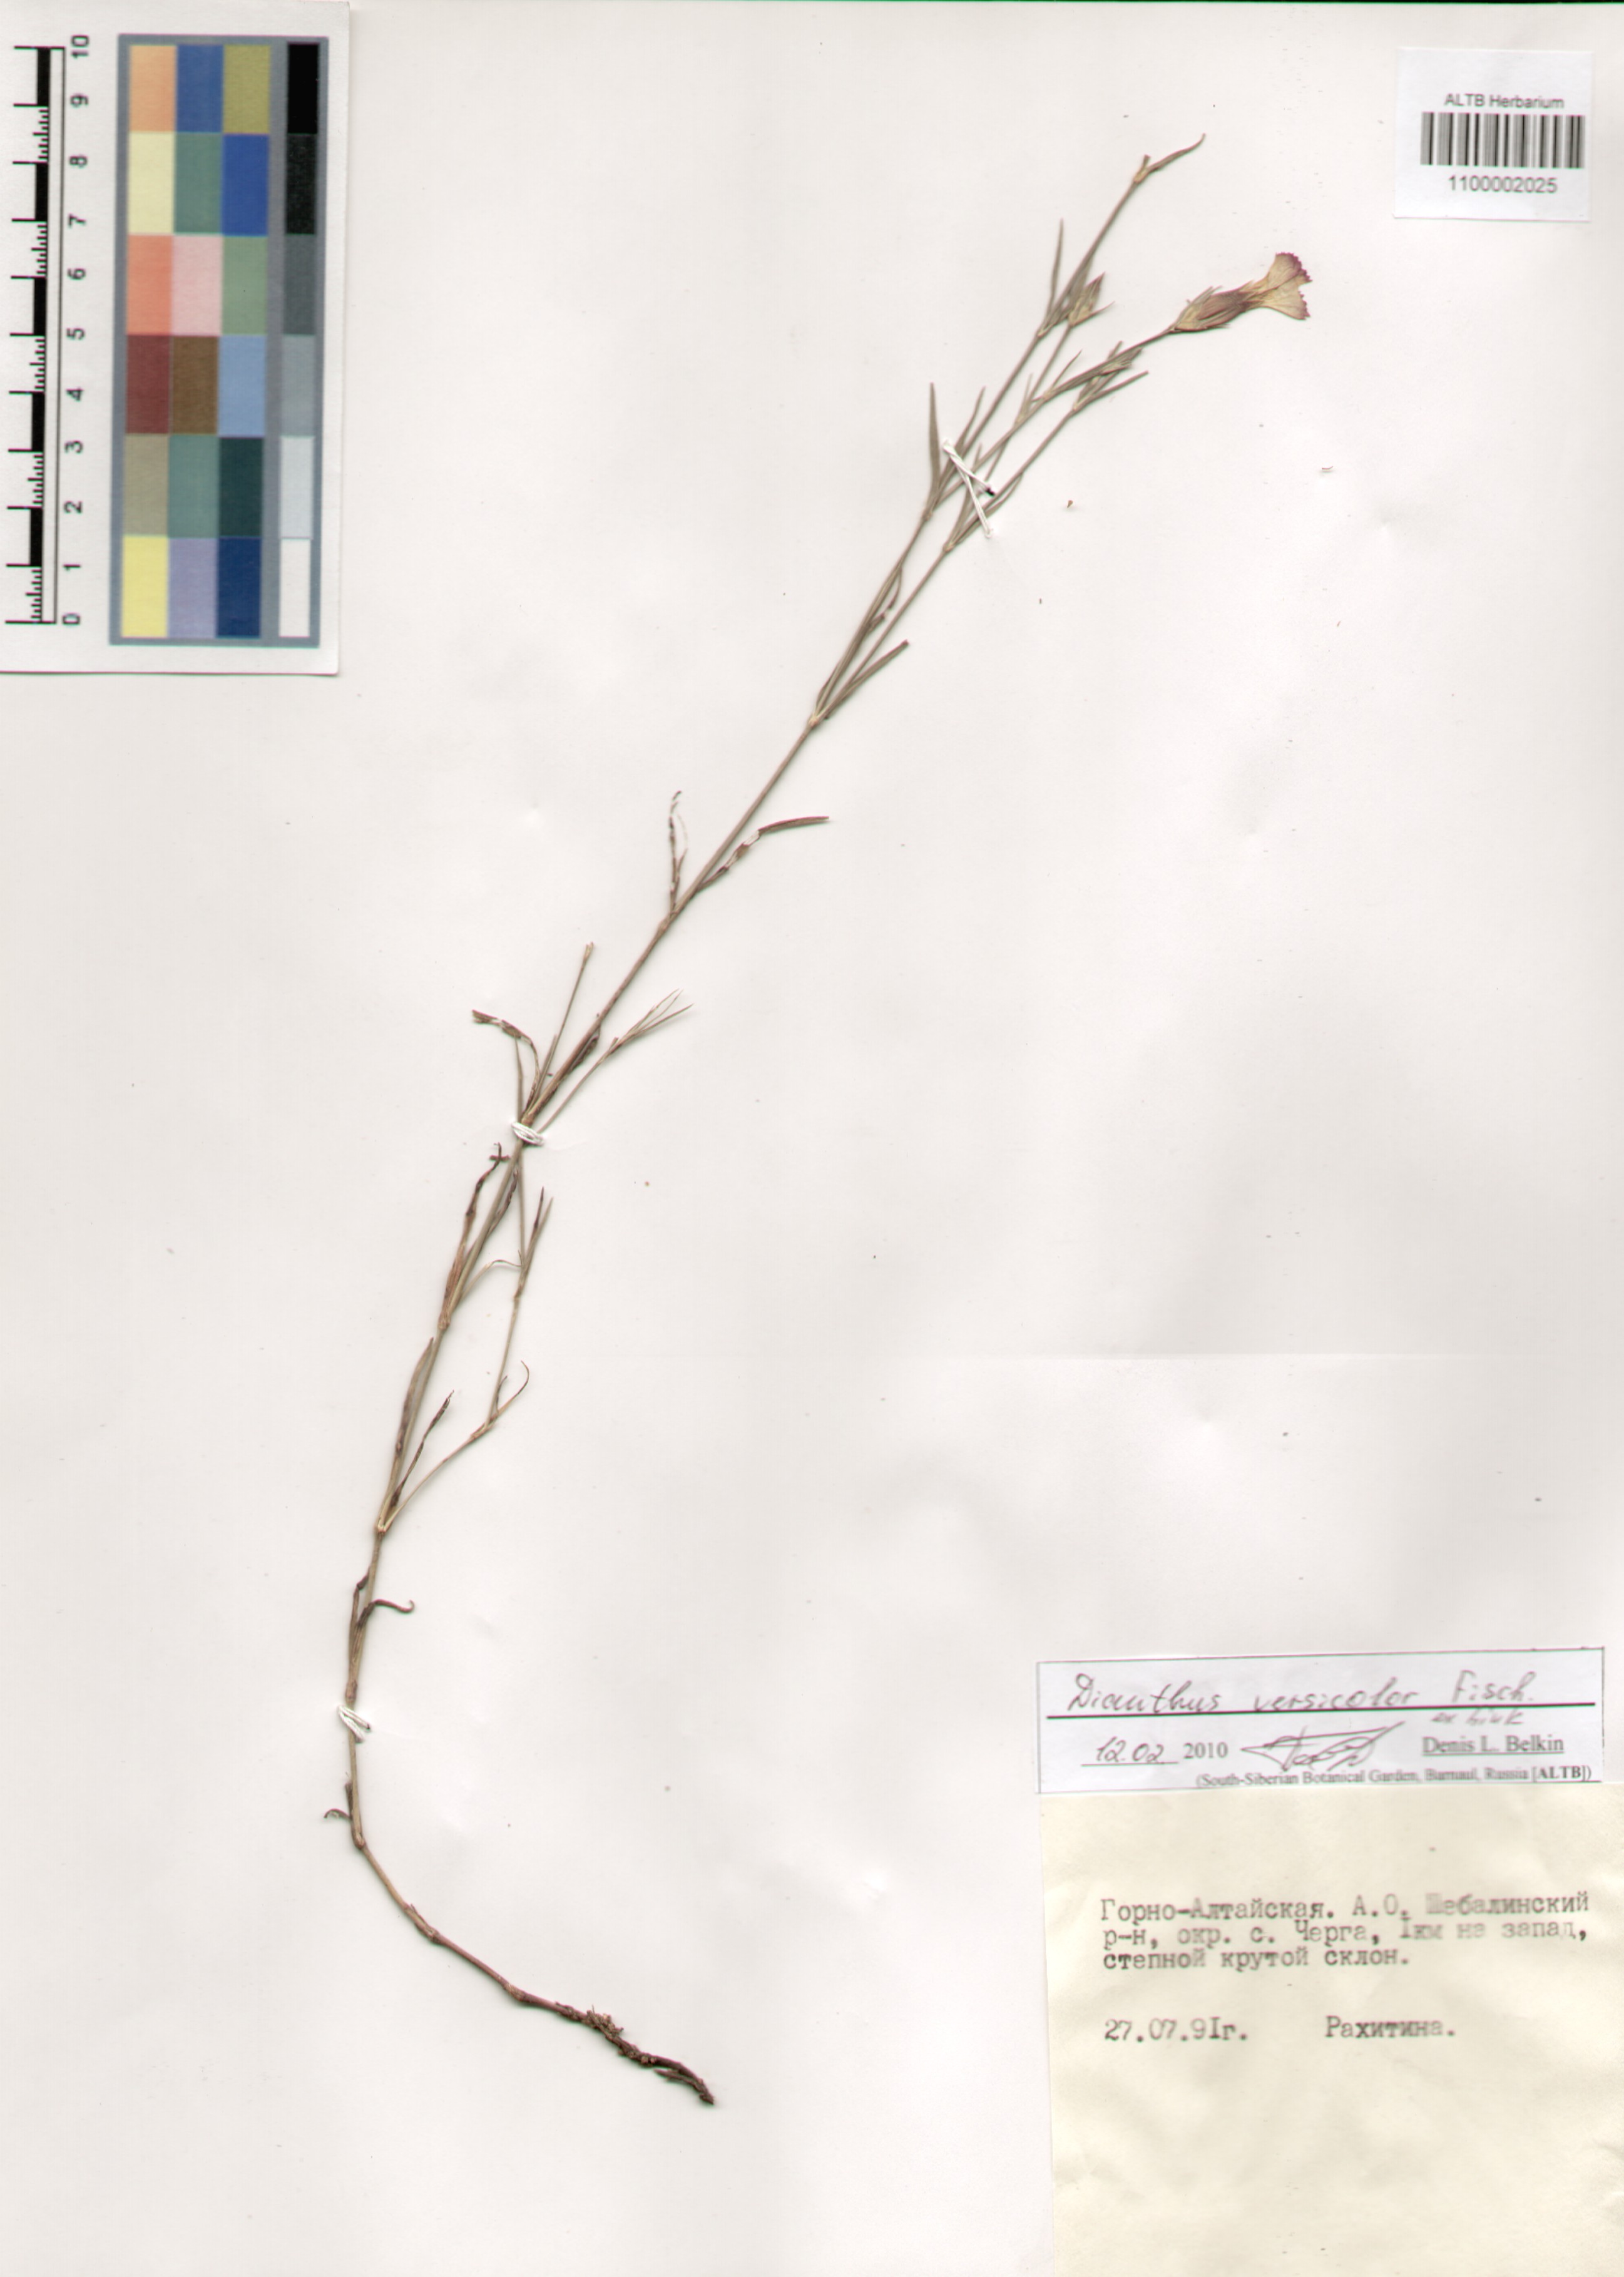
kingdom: Plantae
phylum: Tracheophyta
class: Magnoliopsida
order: Caryophyllales
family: Caryophyllaceae
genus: Dianthus
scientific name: Dianthus chinensis
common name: Rainbow pink
